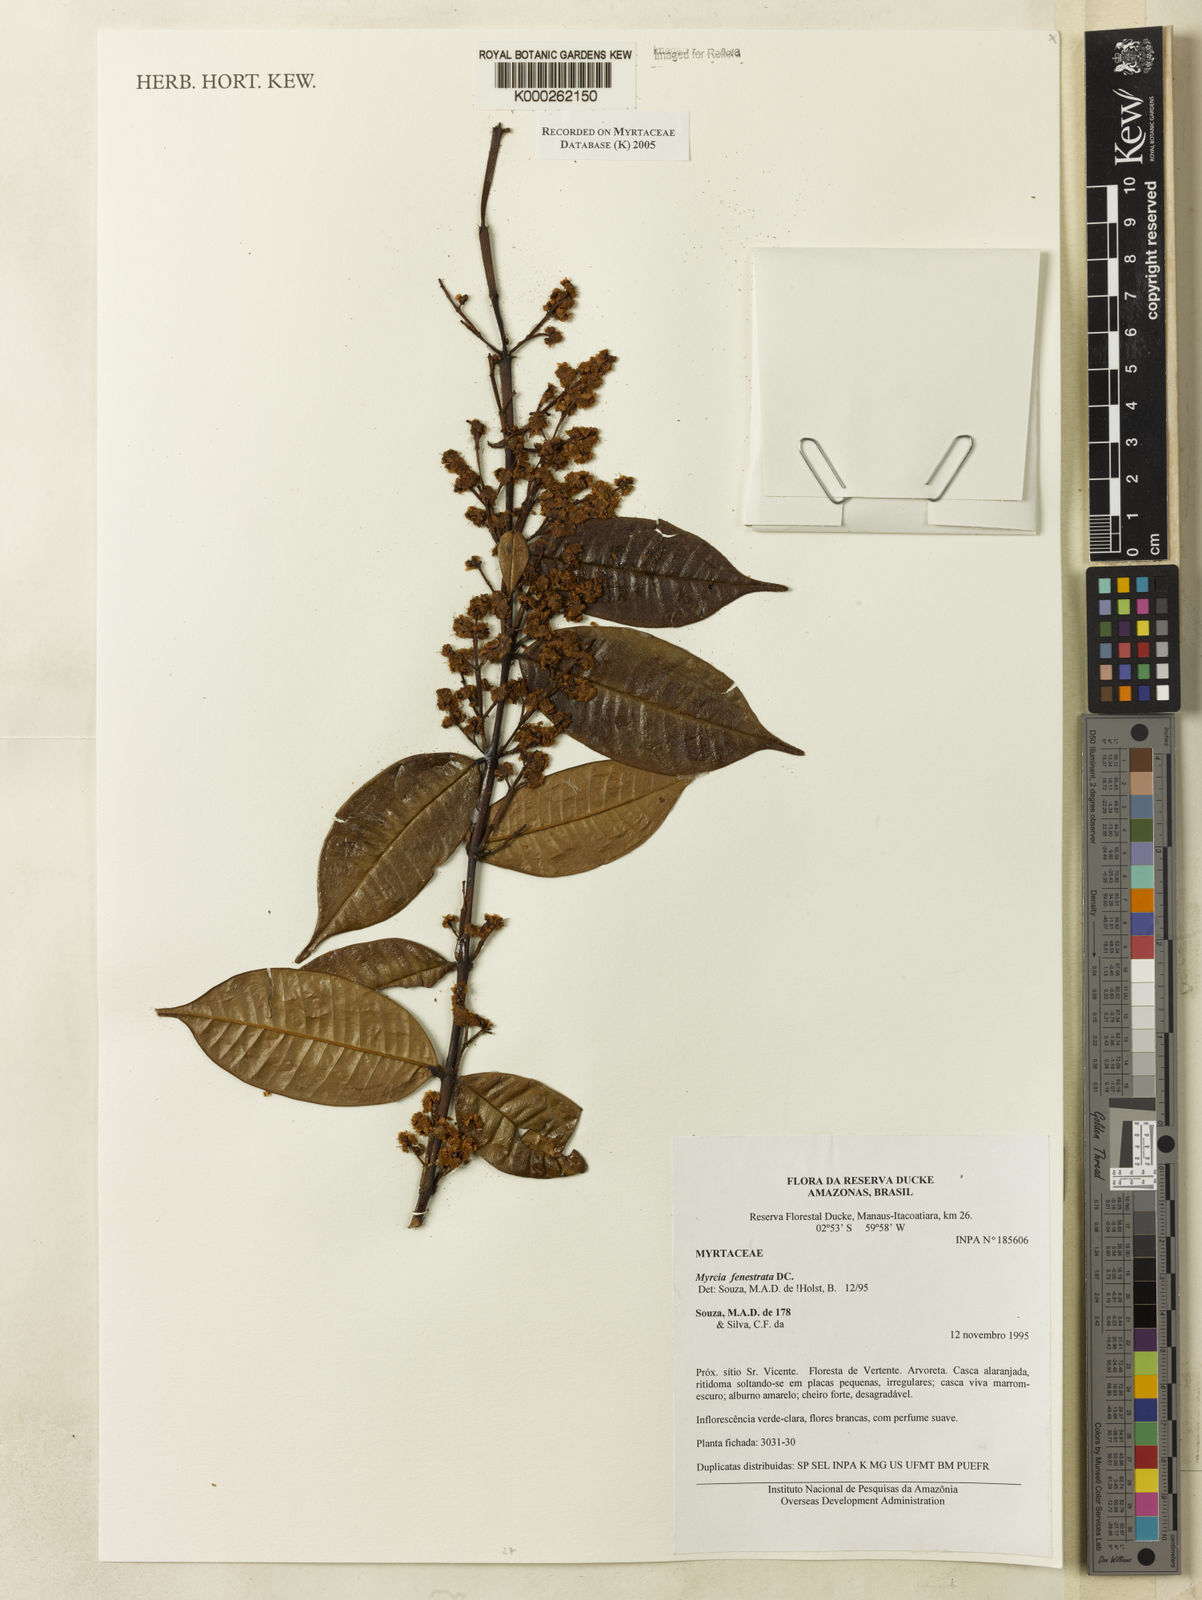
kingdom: Plantae
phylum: Tracheophyta
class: Magnoliopsida
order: Myrtales
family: Myrtaceae
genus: Myrcia
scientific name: Myrcia fenestrata
